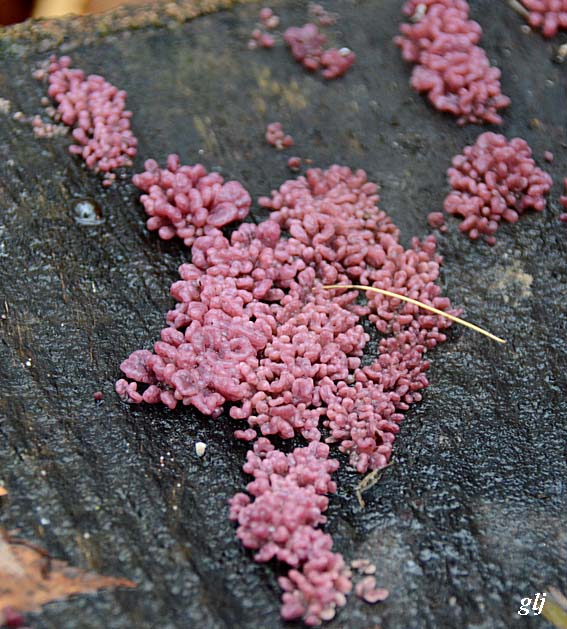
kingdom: Fungi
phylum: Ascomycota
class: Leotiomycetes
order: Helotiales
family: Gelatinodiscaceae
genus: Ascocoryne
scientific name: Ascocoryne sarcoides
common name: rødlilla sejskive
